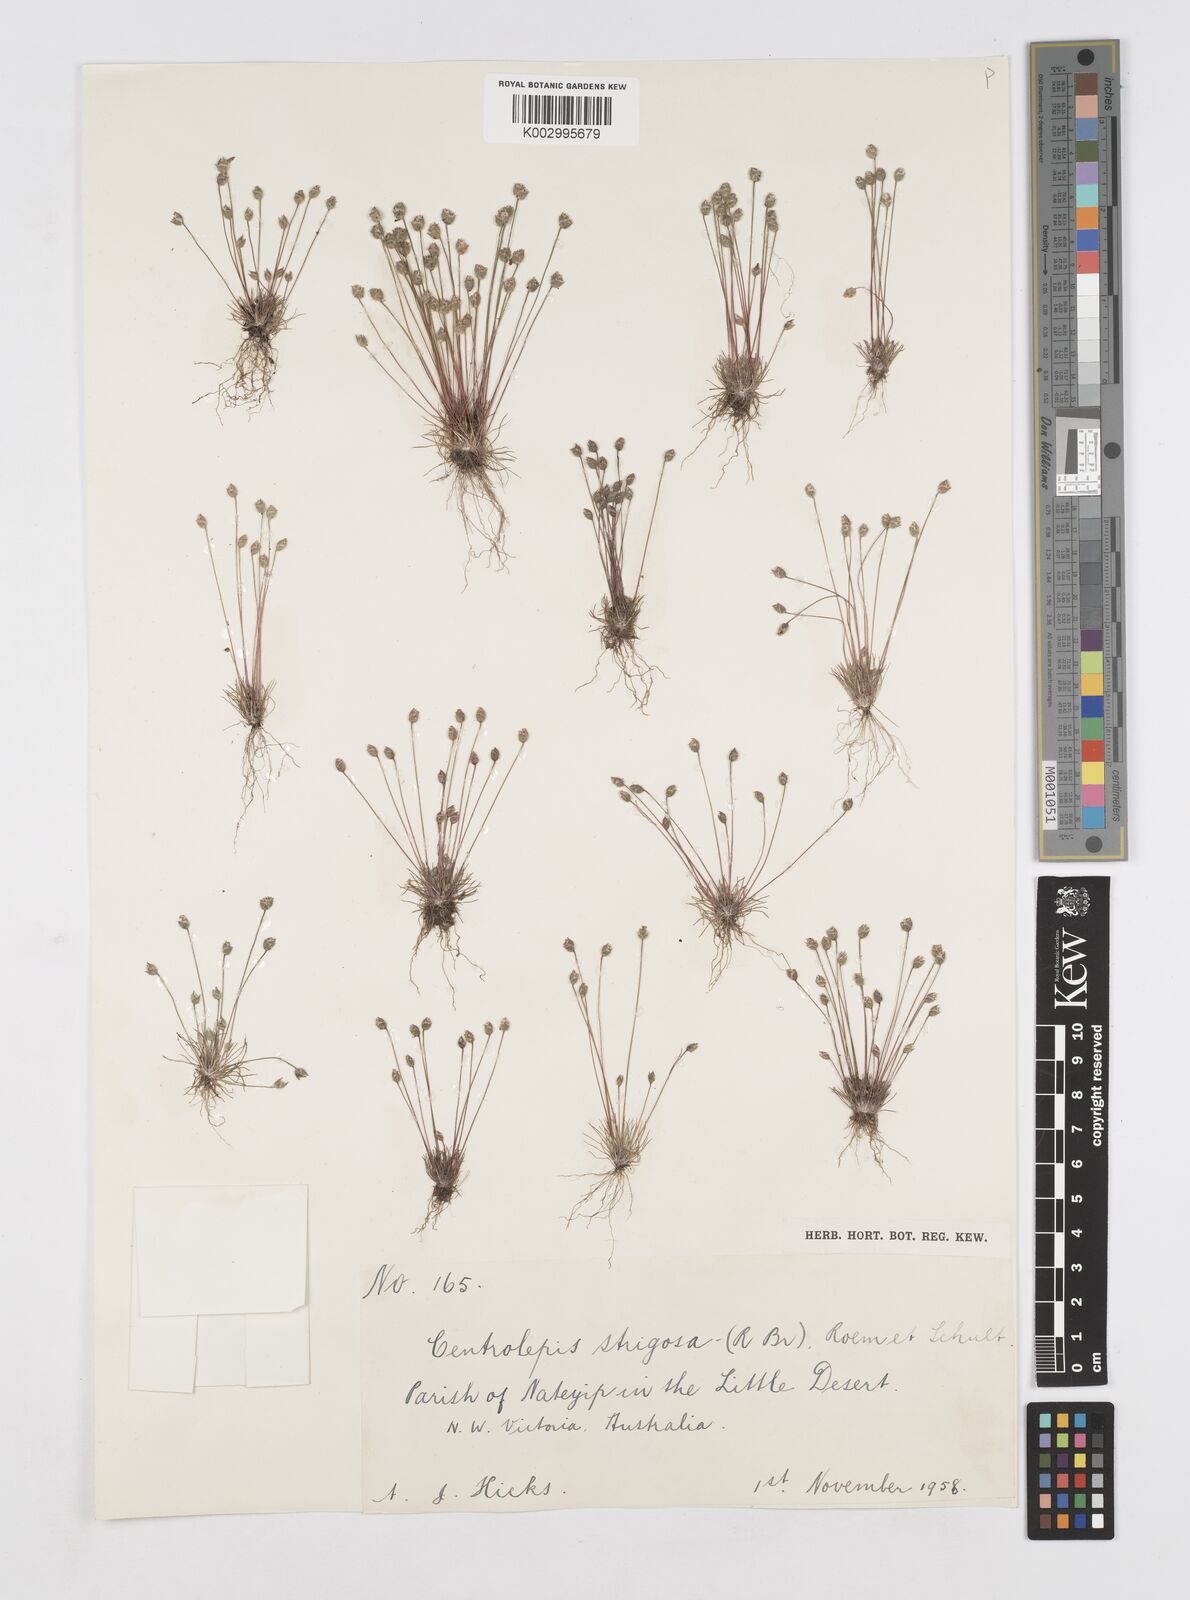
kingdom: Plantae
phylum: Tracheophyta
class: Liliopsida
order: Poales
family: Restionaceae
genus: Centrolepis
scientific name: Centrolepis strigosa
